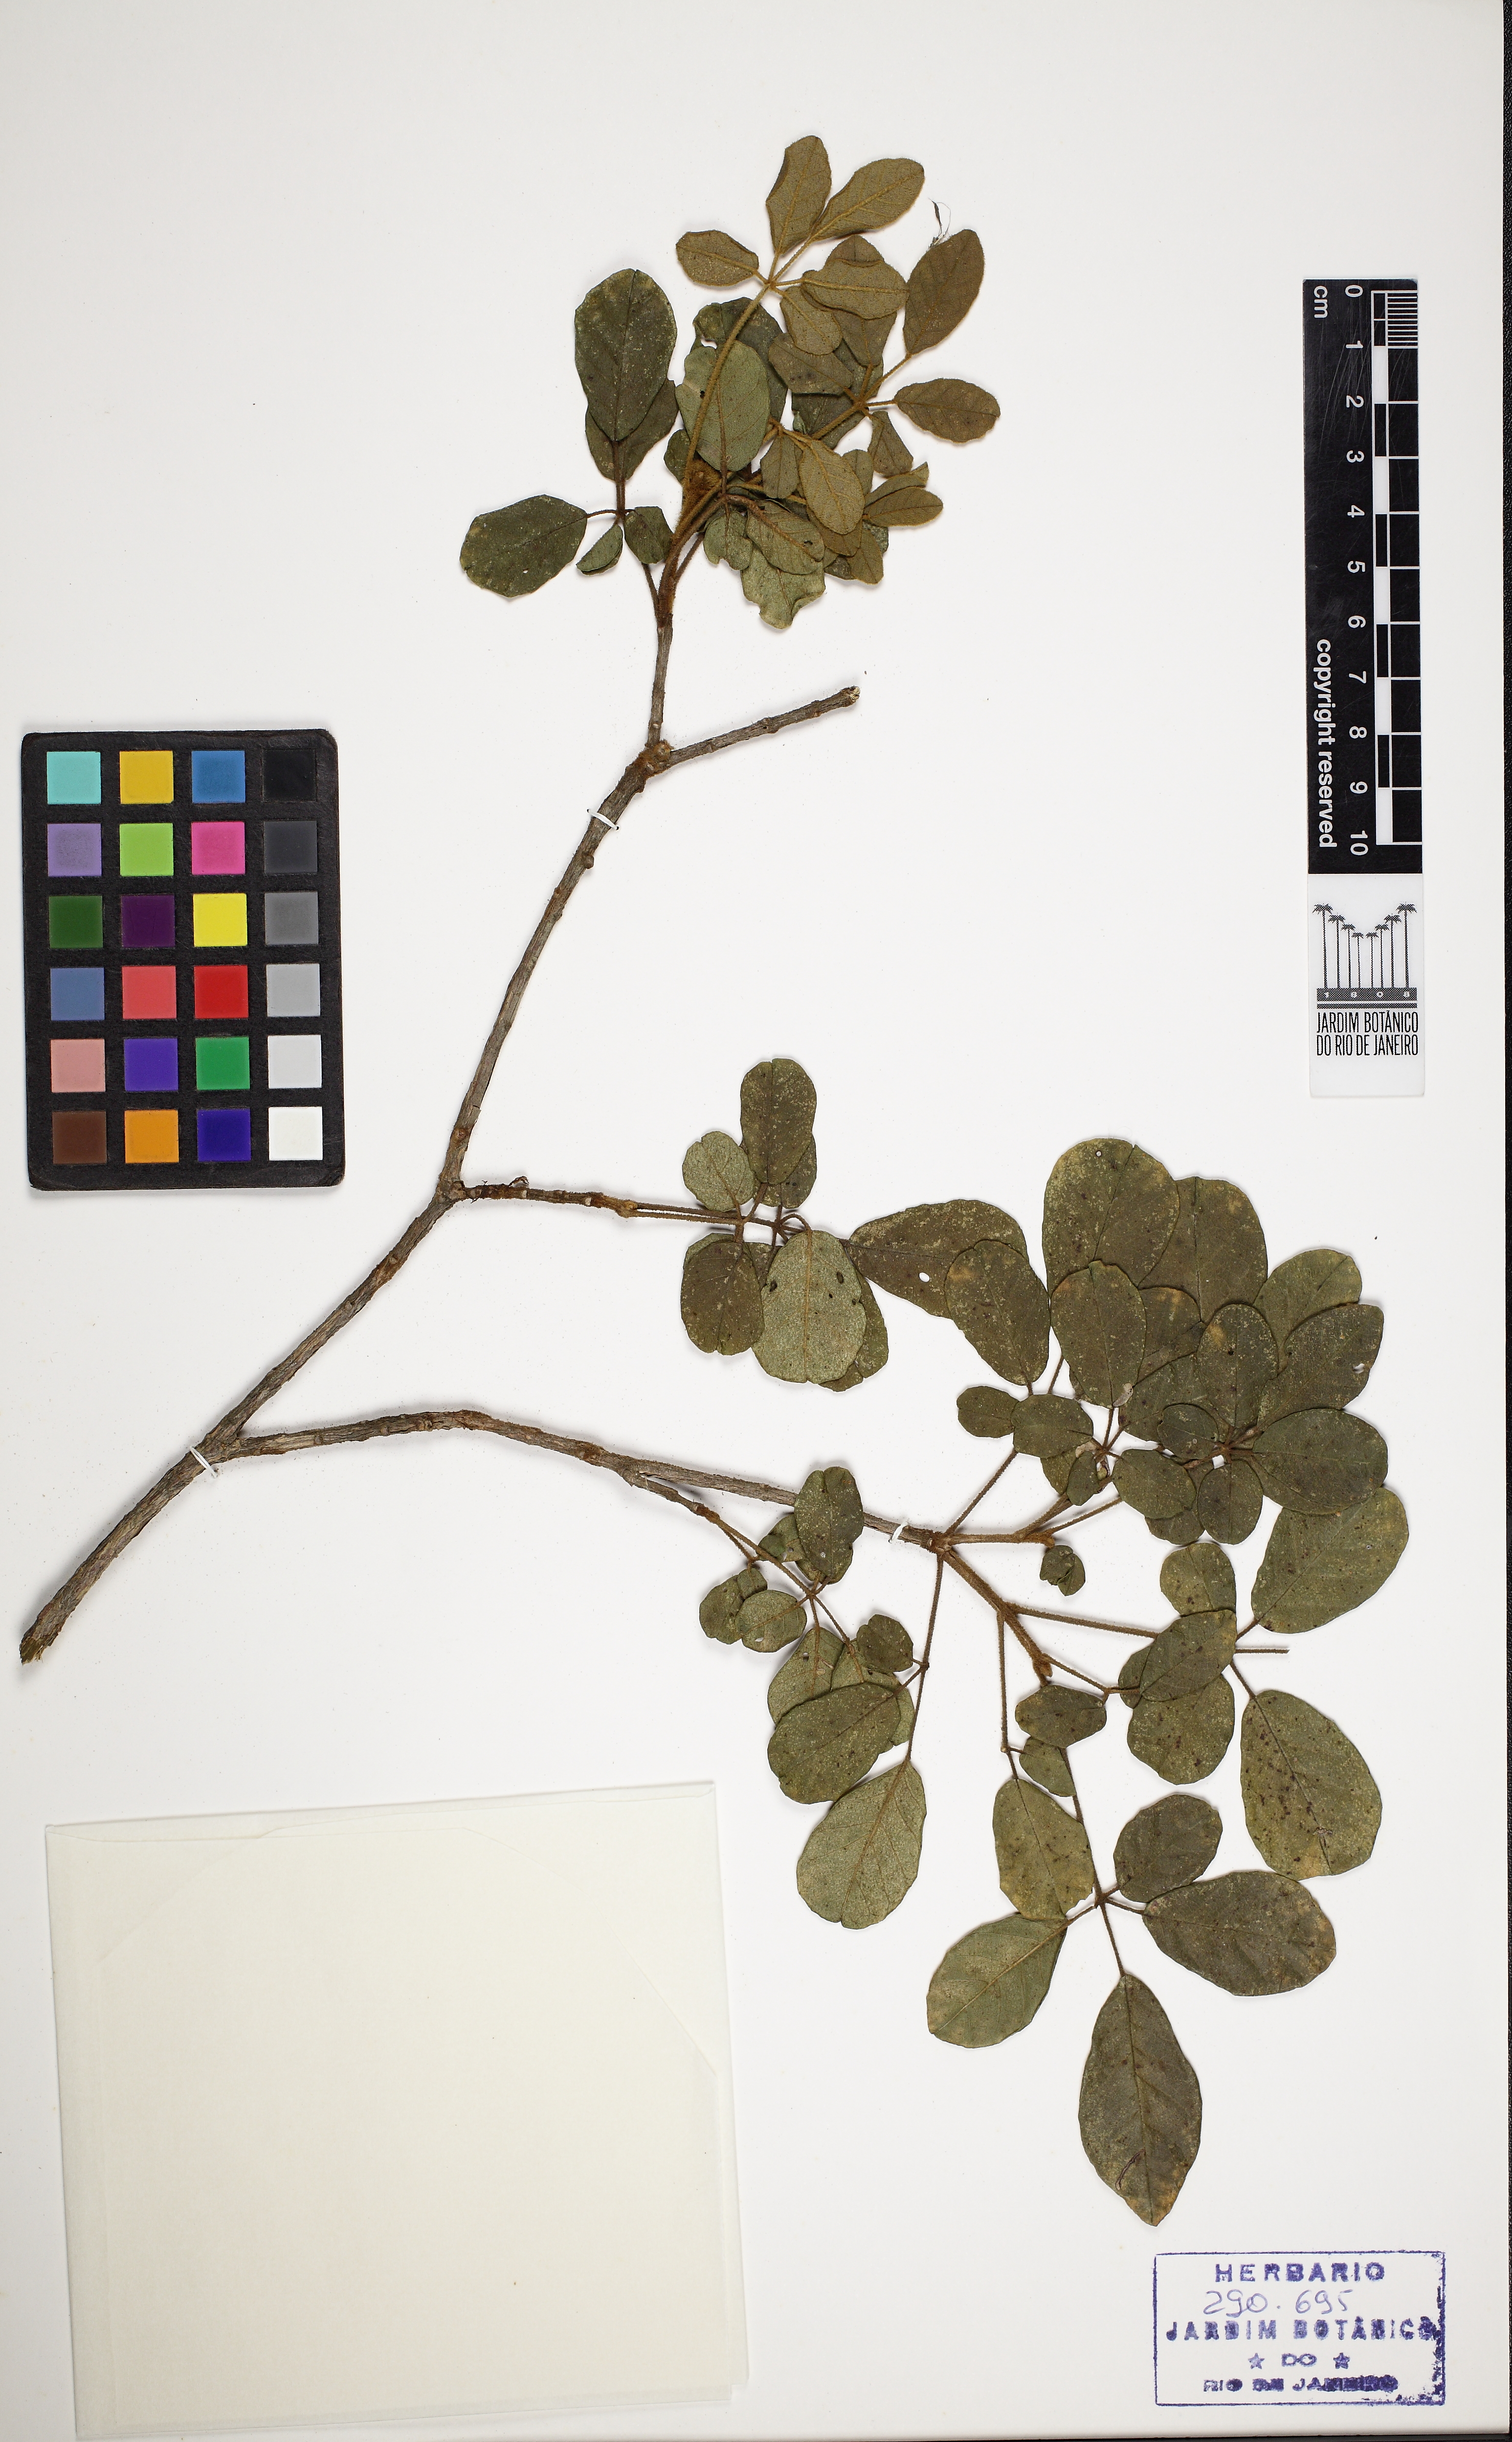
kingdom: Plantae
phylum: Tracheophyta
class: Magnoliopsida
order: Lamiales
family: Bignoniaceae
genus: Handroanthus
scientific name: Handroanthus chrysotrichus
